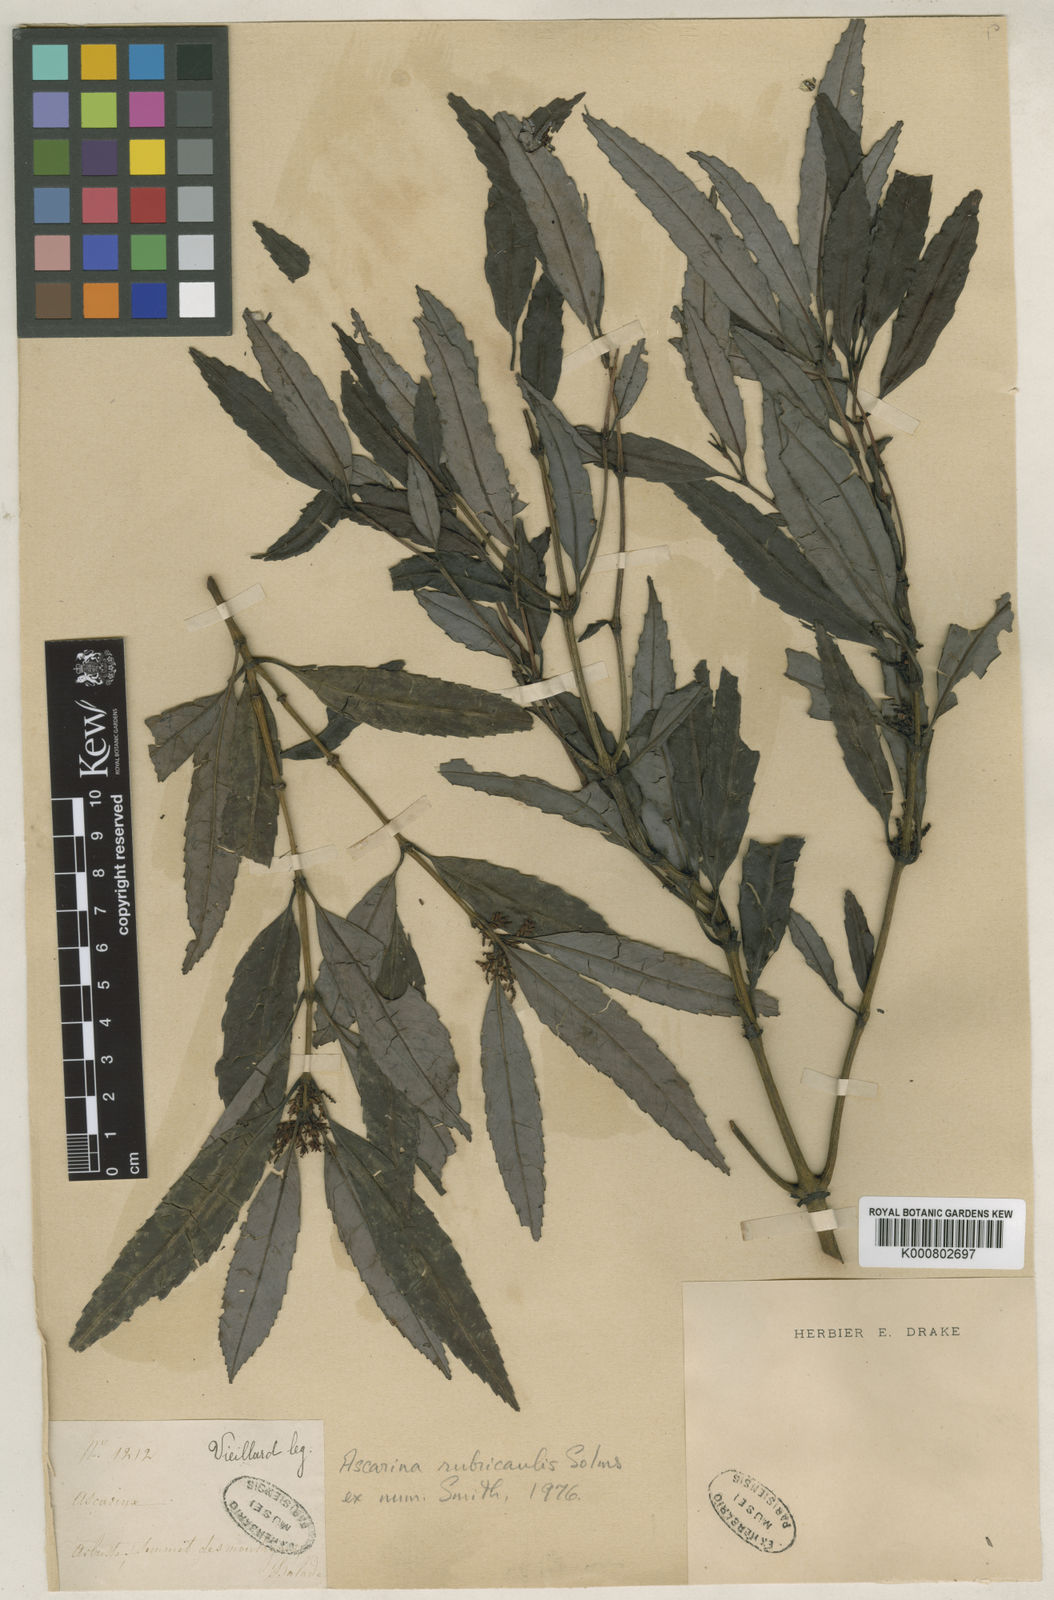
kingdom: Plantae
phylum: Tracheophyta
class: Magnoliopsida
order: Chloranthales
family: Chloranthaceae
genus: Ascarina
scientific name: Ascarina rubricaulis
